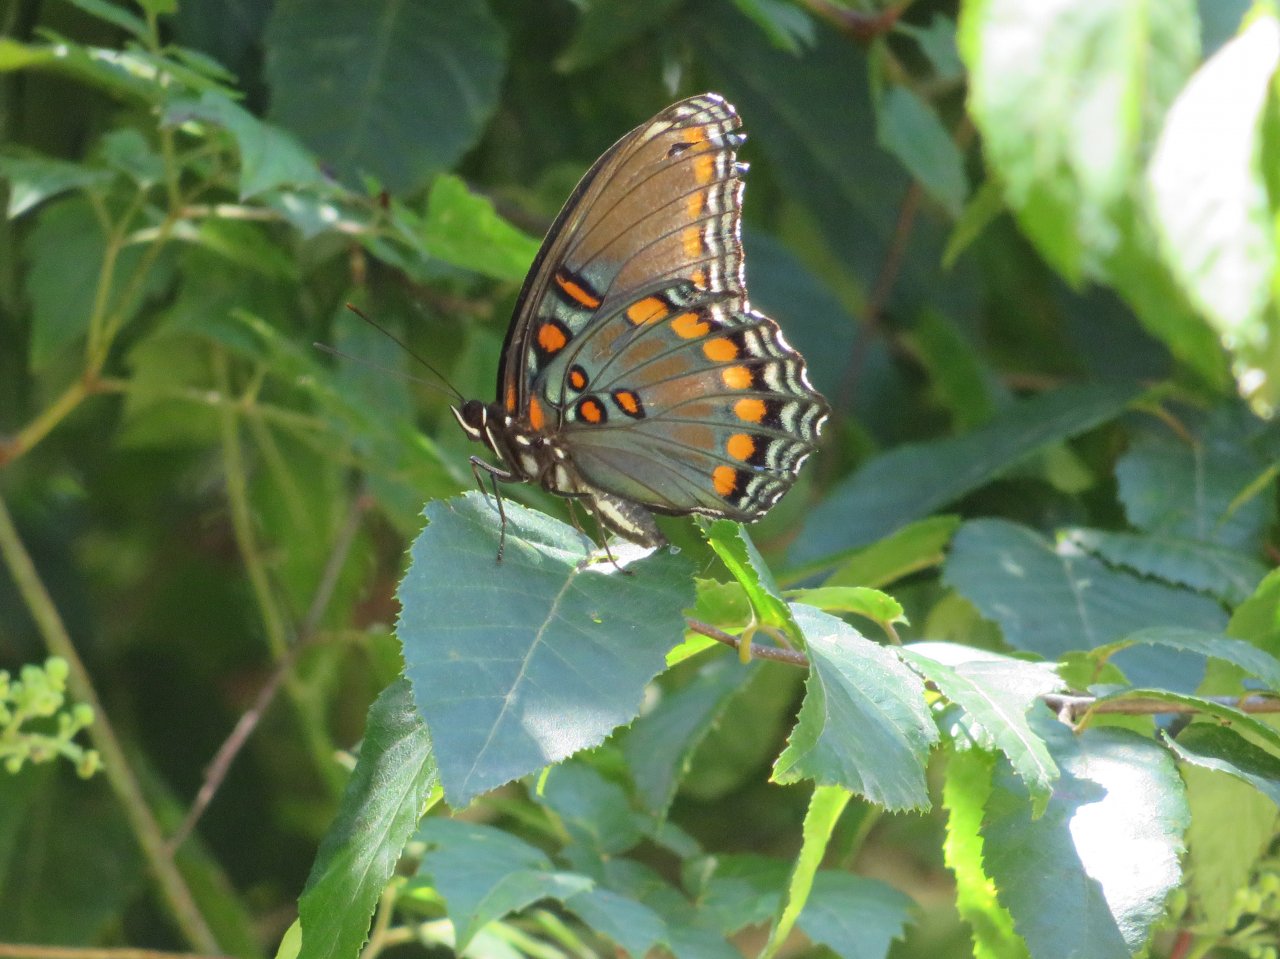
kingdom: Animalia
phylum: Arthropoda
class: Insecta
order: Lepidoptera
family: Nymphalidae
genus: Limenitis
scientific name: Limenitis arthemis
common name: Red-spotted Admiral
